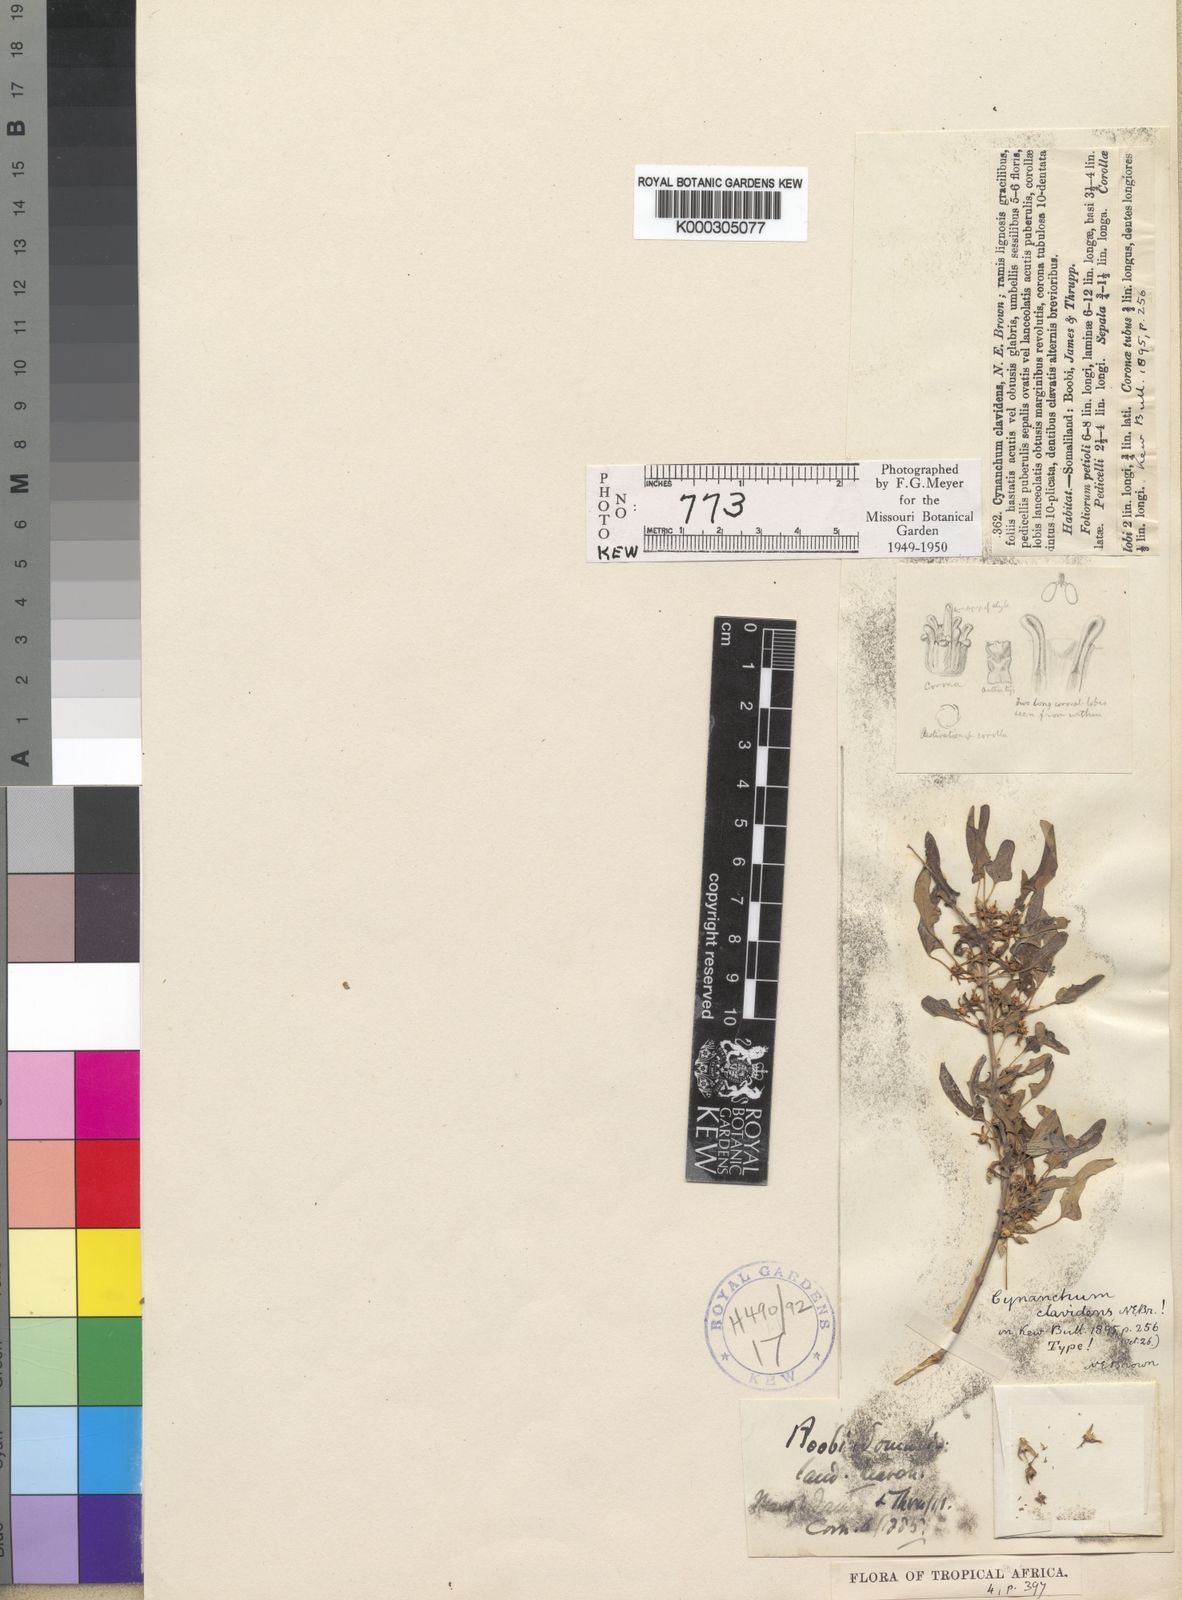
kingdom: Plantae
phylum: Tracheophyta
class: Magnoliopsida
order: Gentianales
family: Apocynaceae
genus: Cynanchum
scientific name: Cynanchum hastifolium
